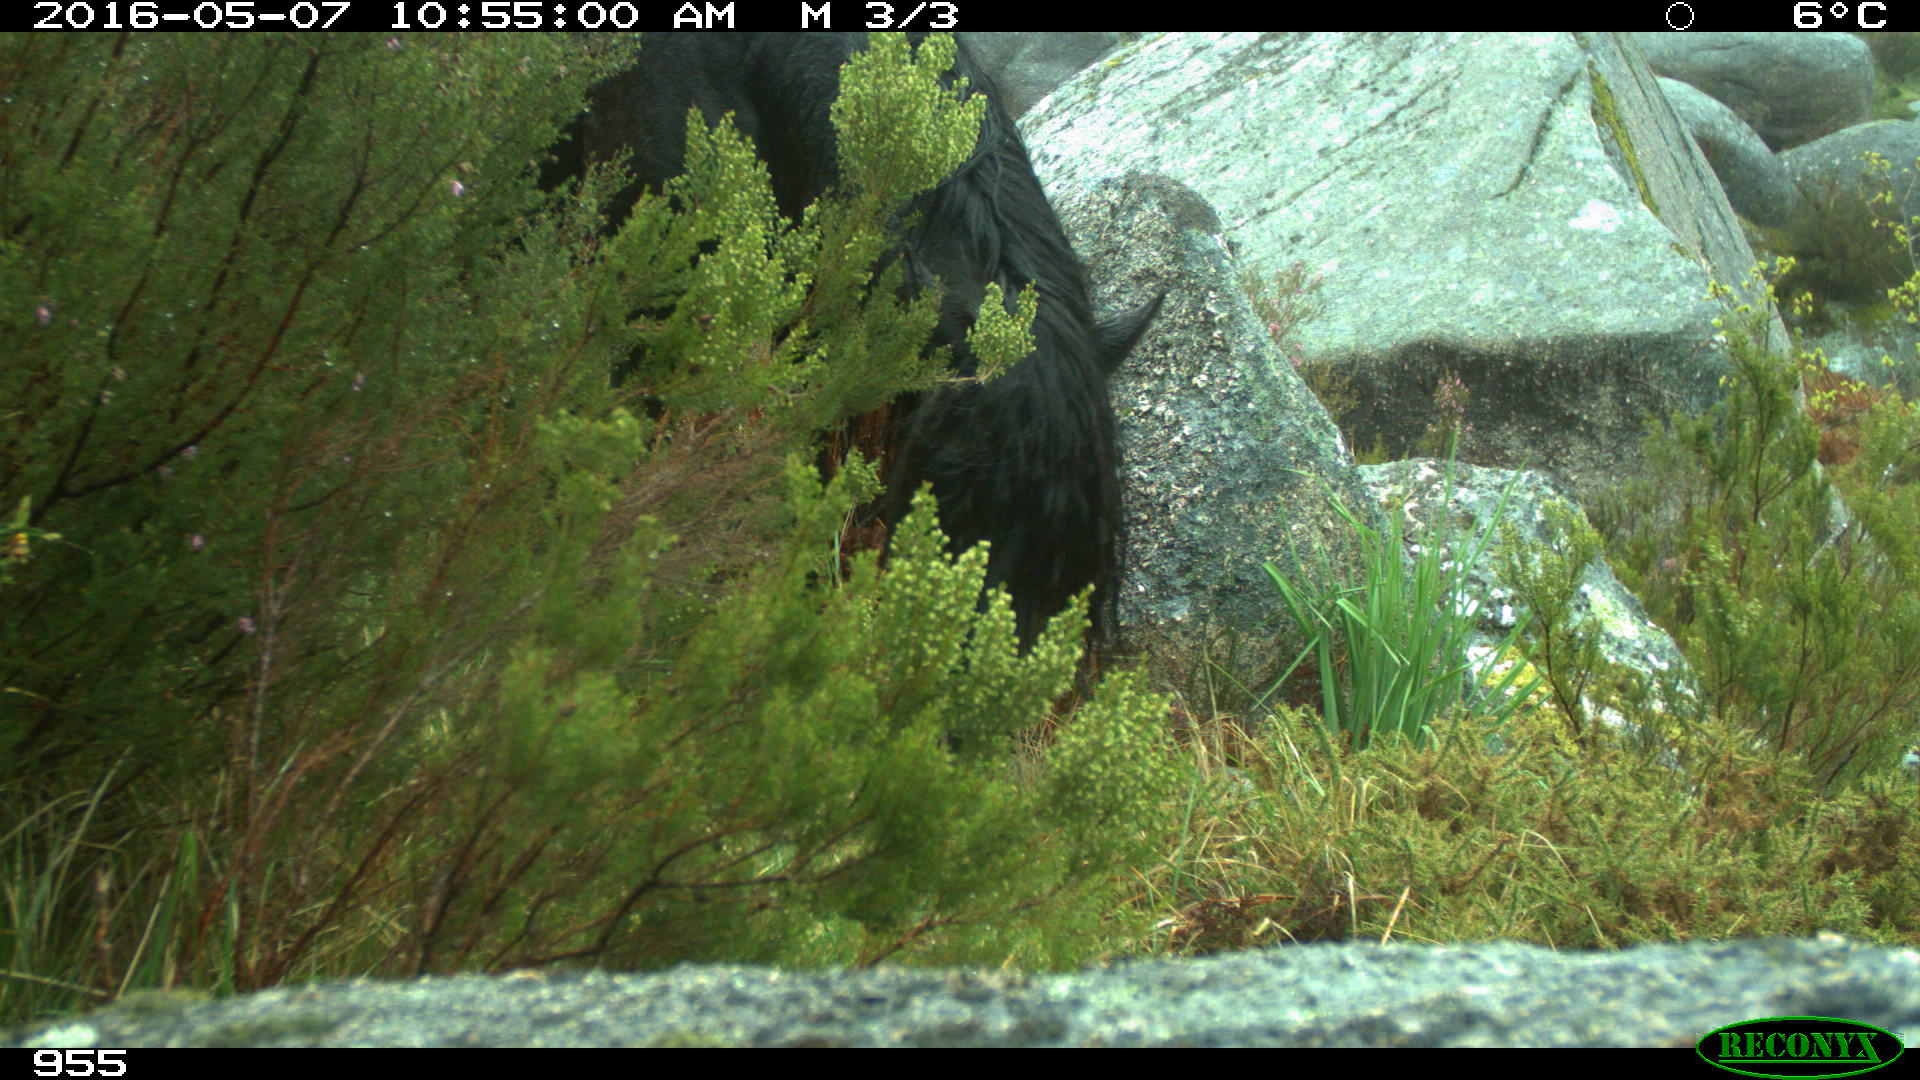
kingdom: Animalia
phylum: Chordata
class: Mammalia
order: Perissodactyla
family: Equidae
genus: Equus
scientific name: Equus caballus
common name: Horse
